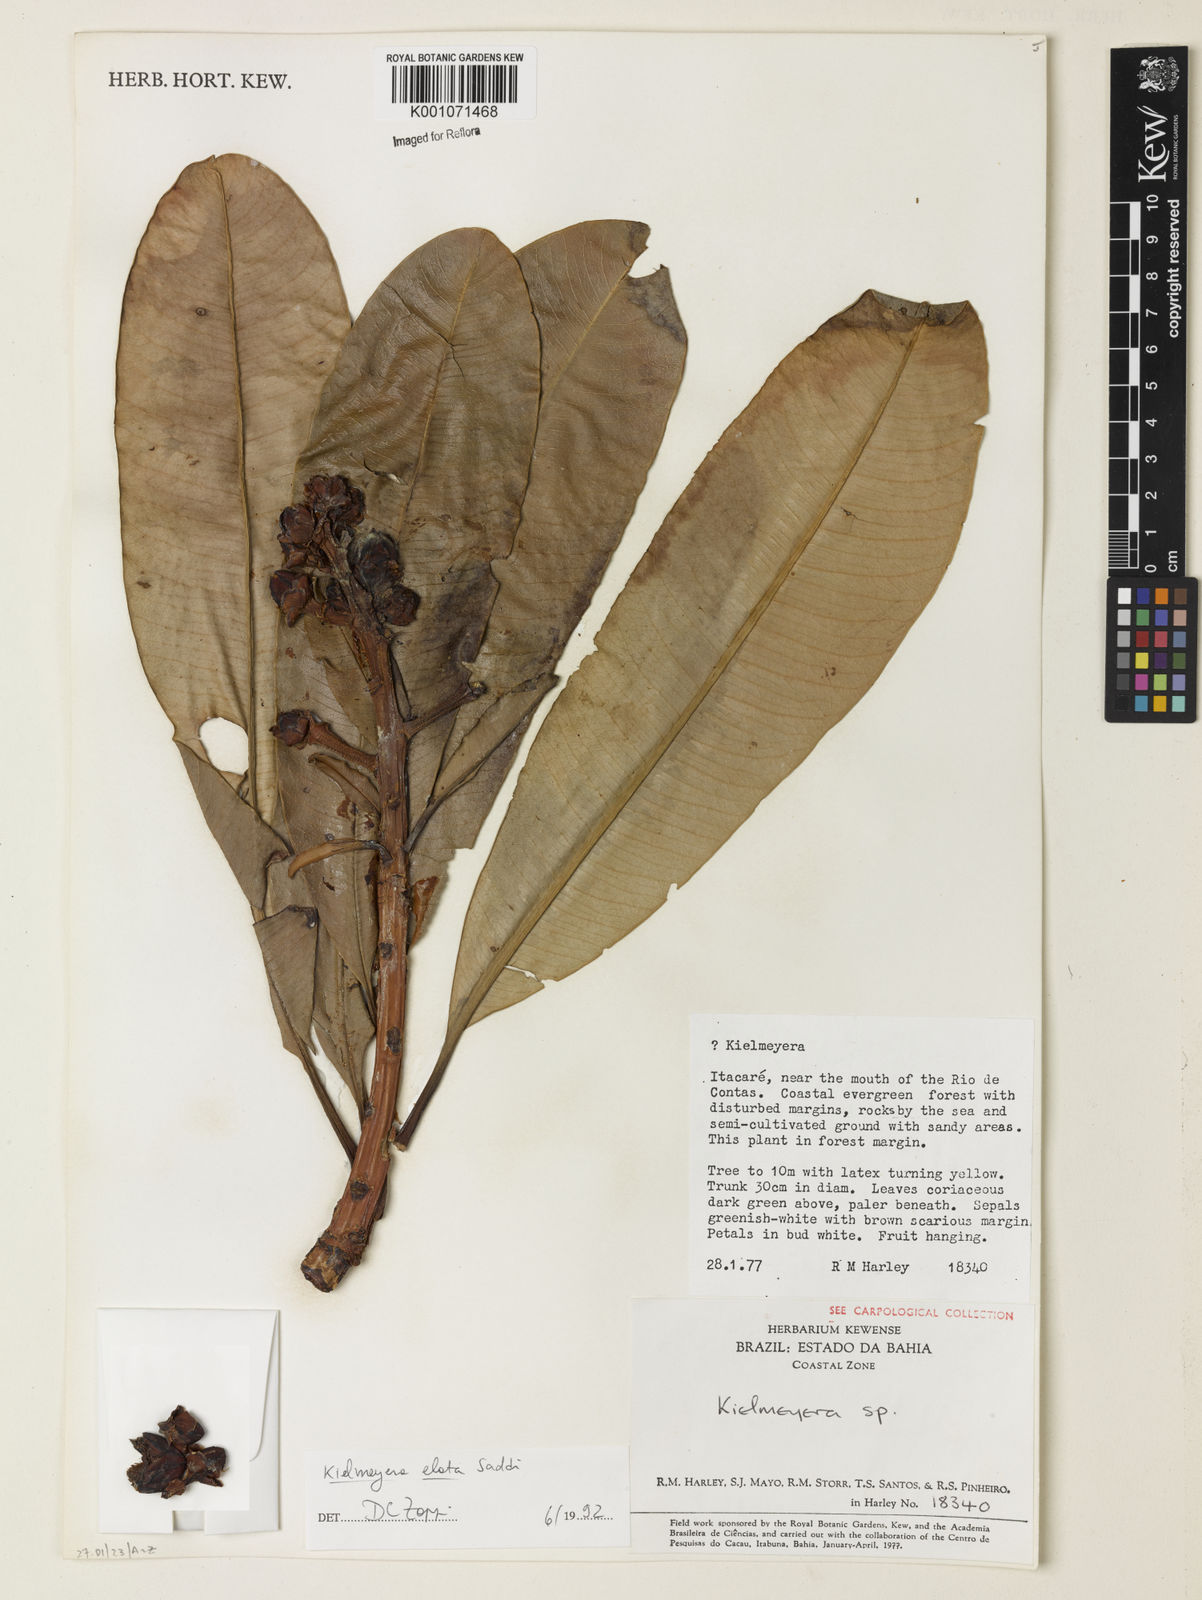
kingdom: Plantae
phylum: Tracheophyta
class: Magnoliopsida
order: Malpighiales
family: Calophyllaceae
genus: Kielmeyera
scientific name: Kielmeyera itacarensis
